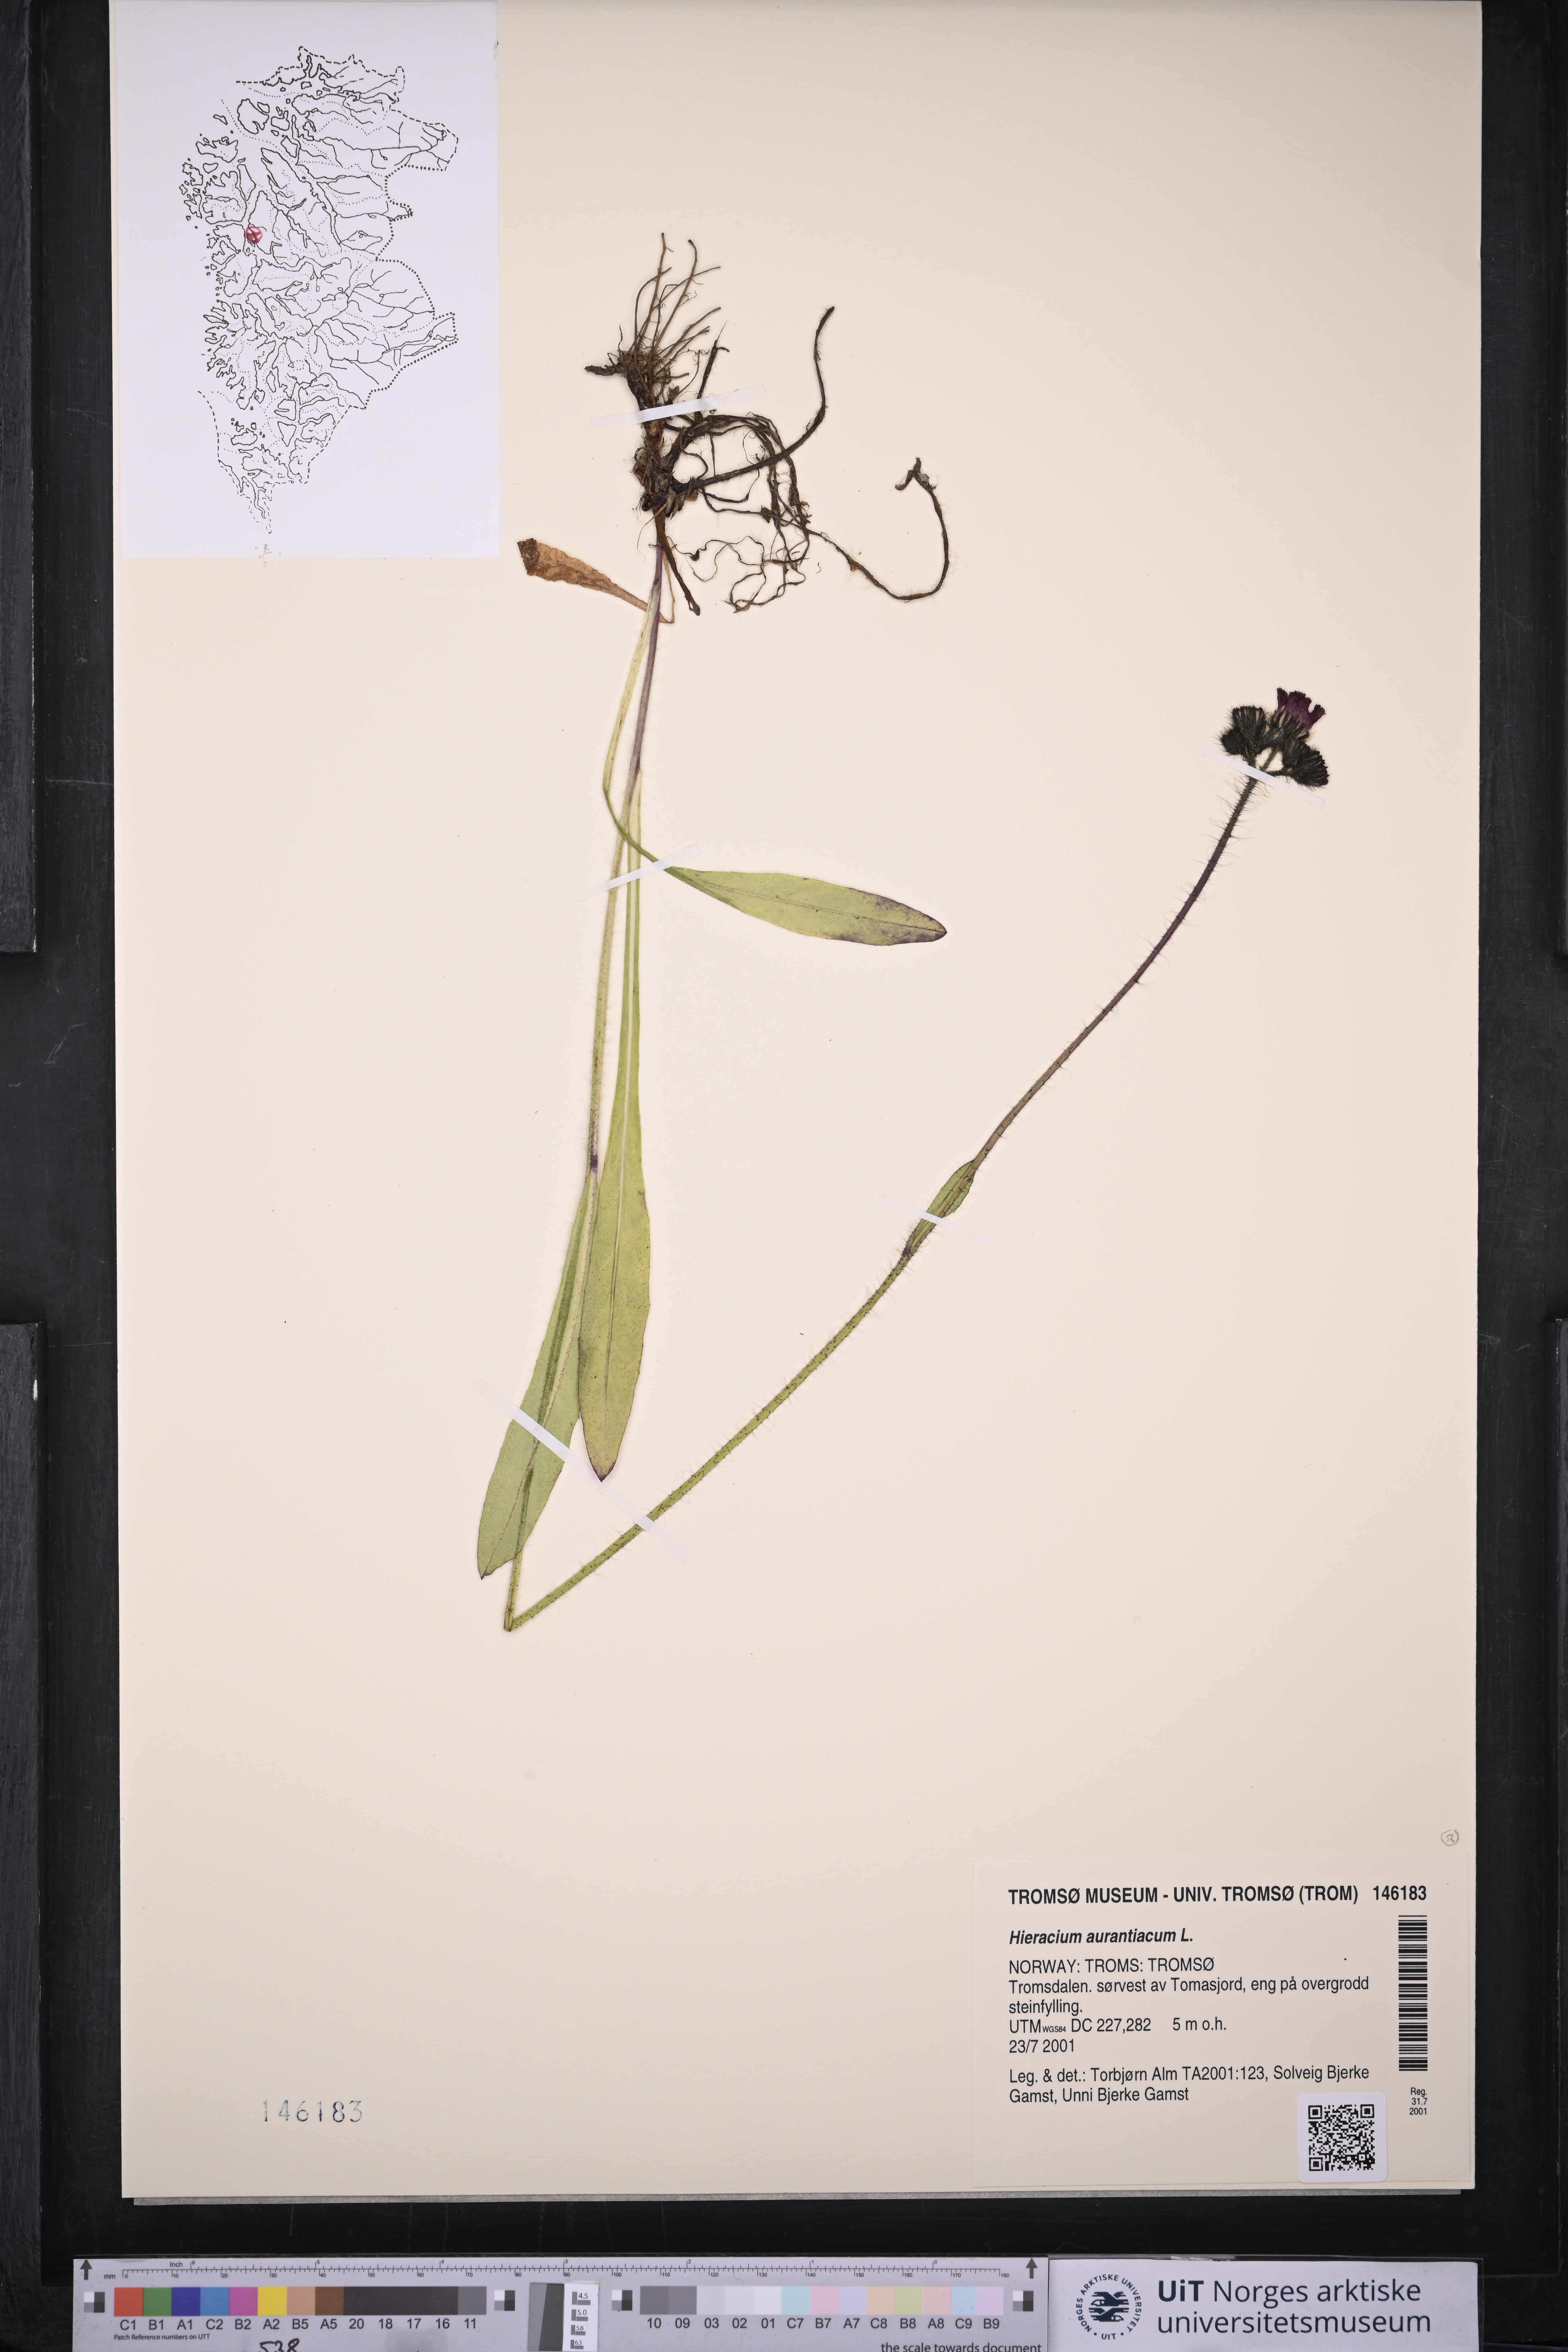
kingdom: Plantae
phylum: Tracheophyta
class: Magnoliopsida
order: Asterales
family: Asteraceae
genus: Pilosella
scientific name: Pilosella aurantiaca
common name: Fox-and-cubs
